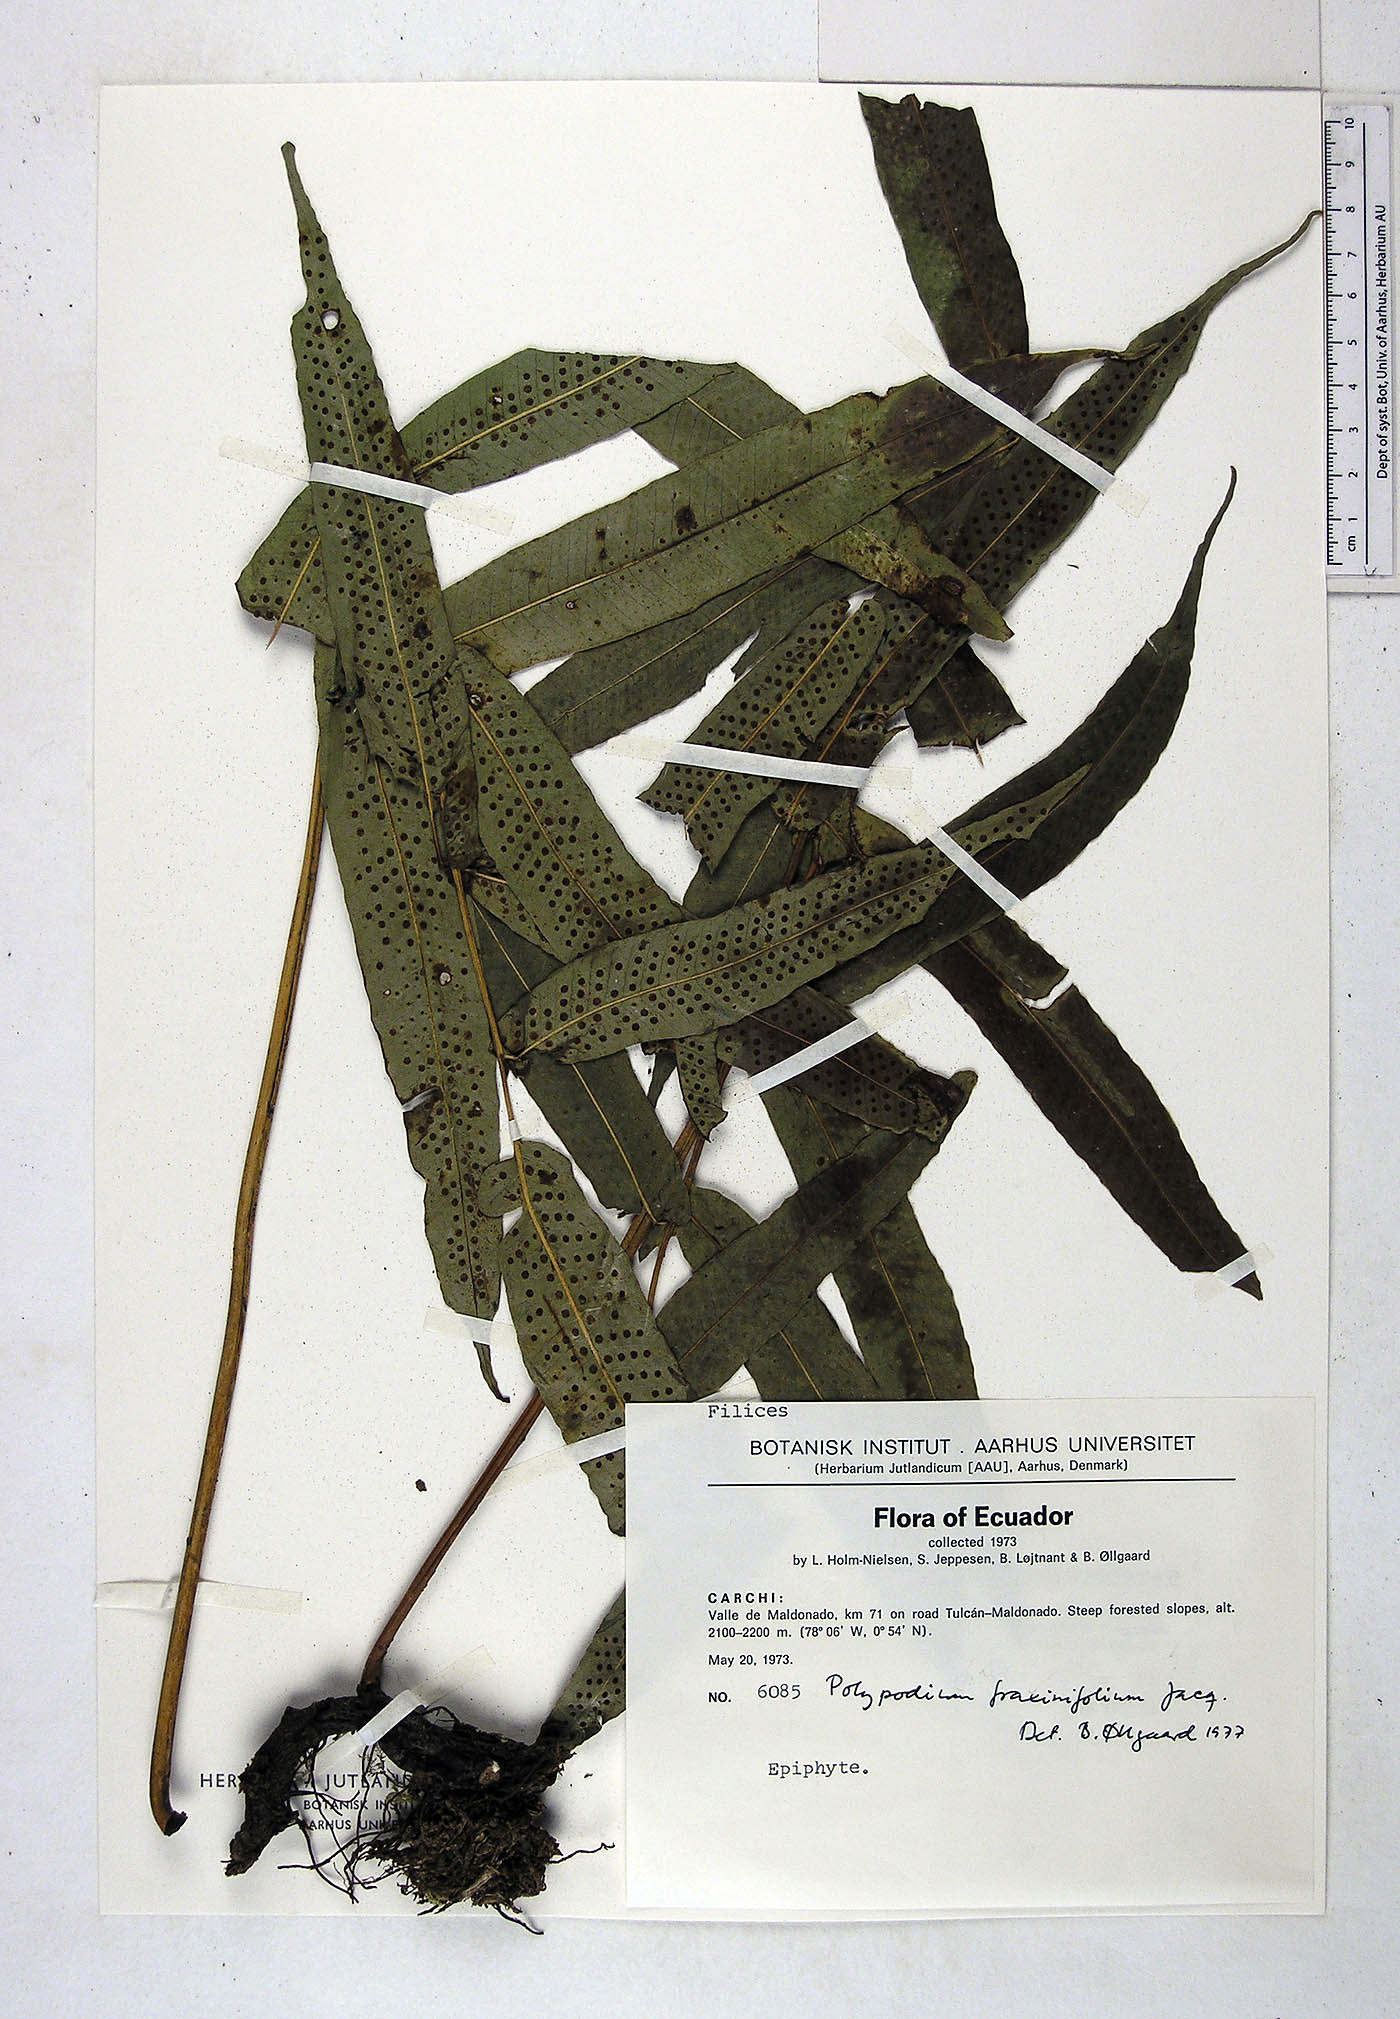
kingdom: Plantae
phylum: Tracheophyta
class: Polypodiopsida
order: Polypodiales
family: Polypodiaceae
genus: Serpocaulon
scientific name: Serpocaulon fraxinifolium
